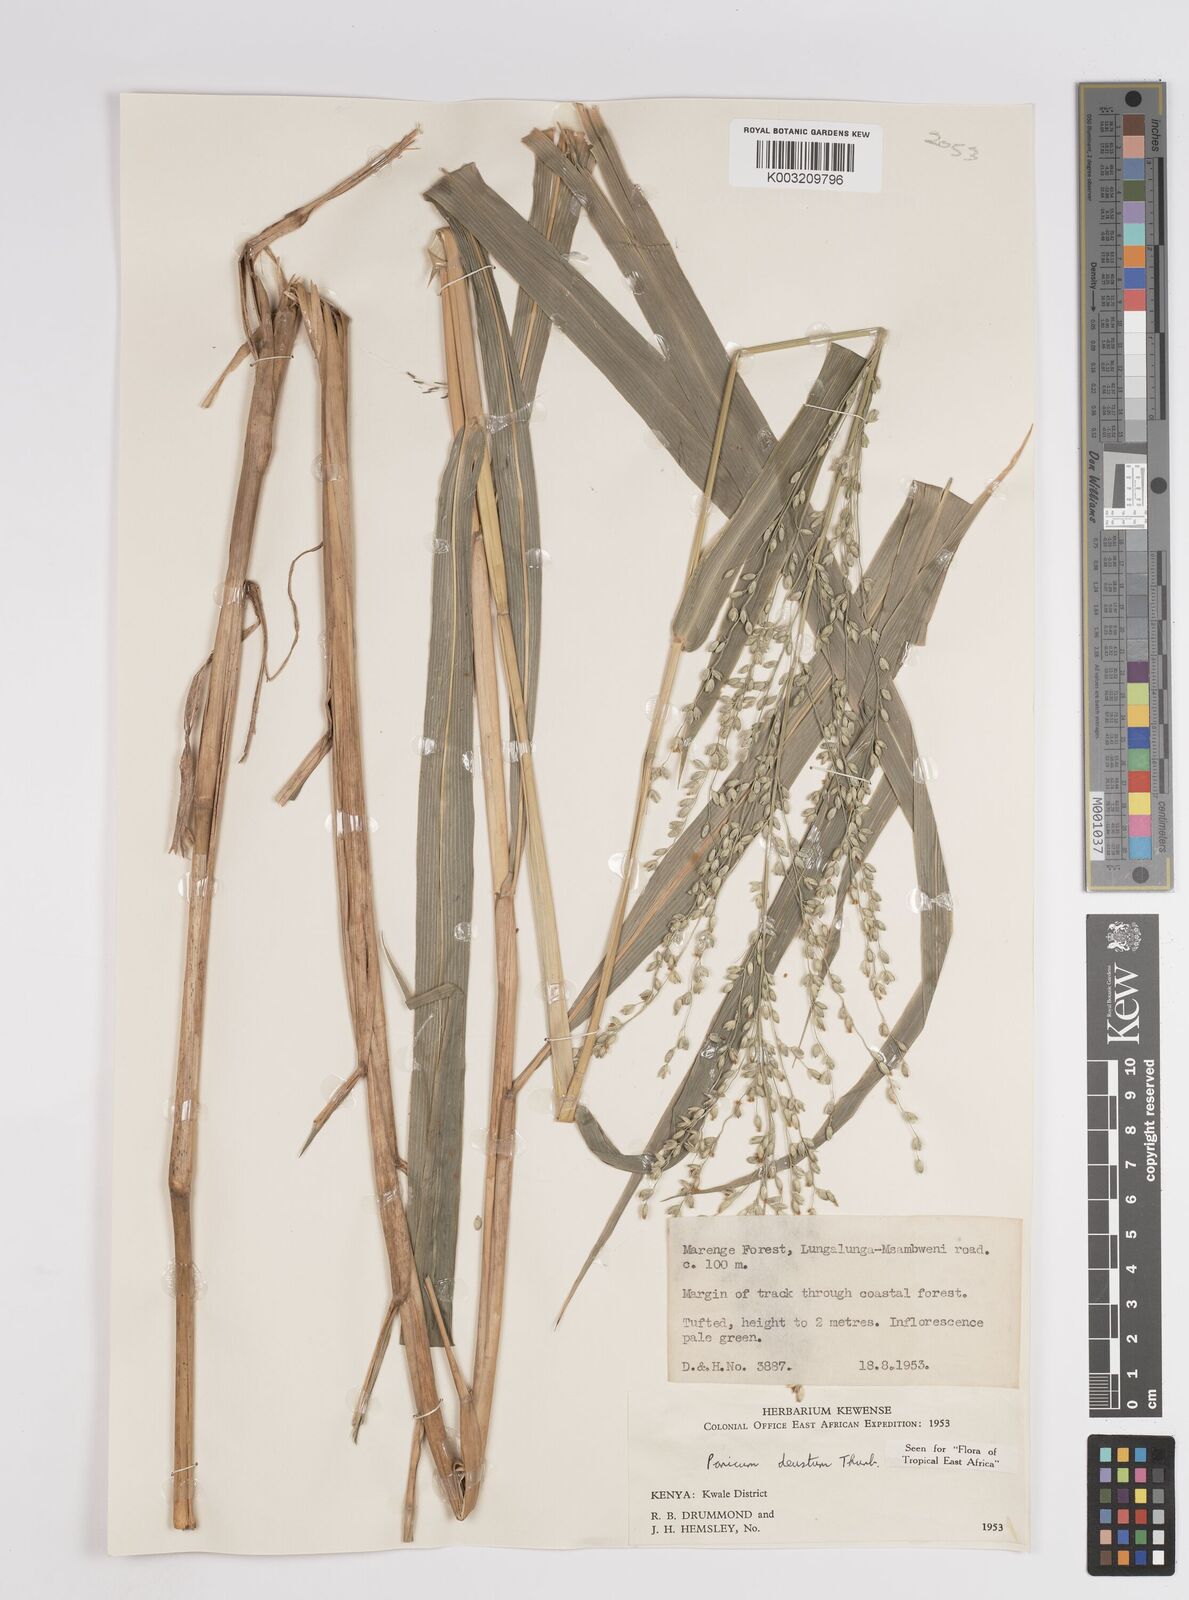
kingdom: Plantae
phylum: Tracheophyta
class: Liliopsida
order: Poales
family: Poaceae
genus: Panicum
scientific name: Panicum deustum
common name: Reed panicum
